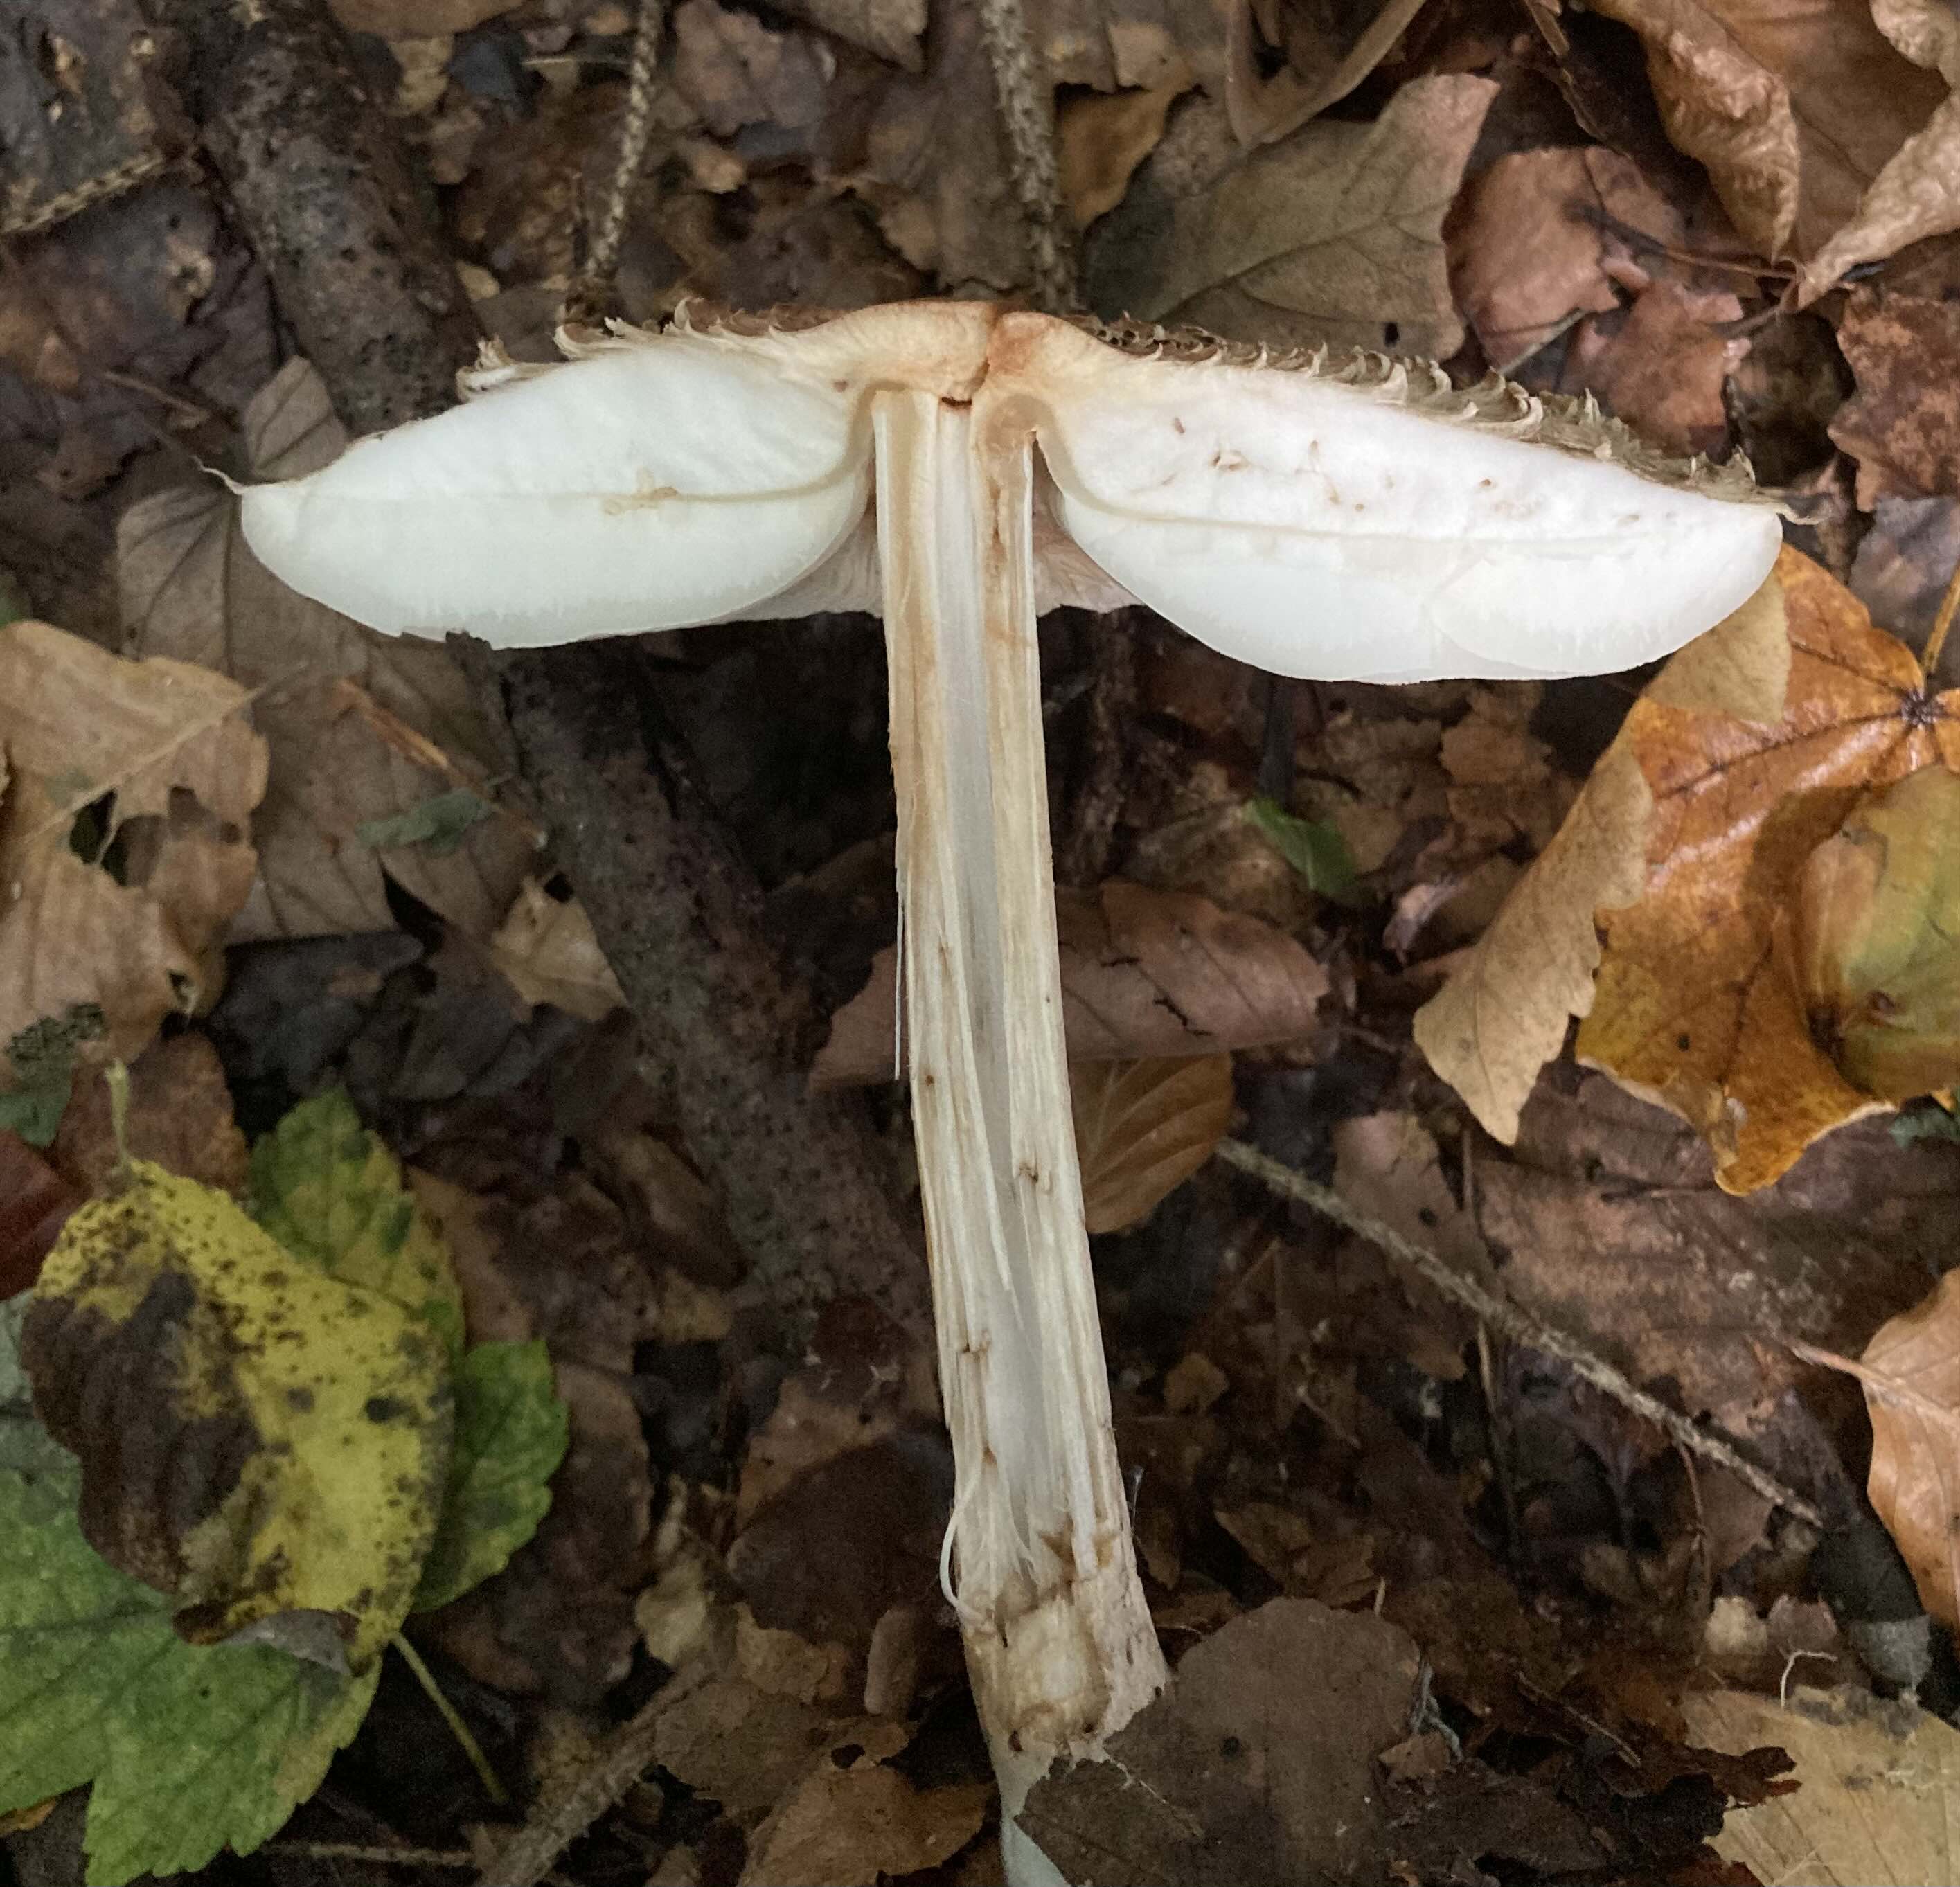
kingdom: Fungi
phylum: Basidiomycota
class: Agaricomycetes
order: Agaricales
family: Agaricaceae
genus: Chlorophyllum
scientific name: Chlorophyllum olivieri
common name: almindelig rabarberhat
